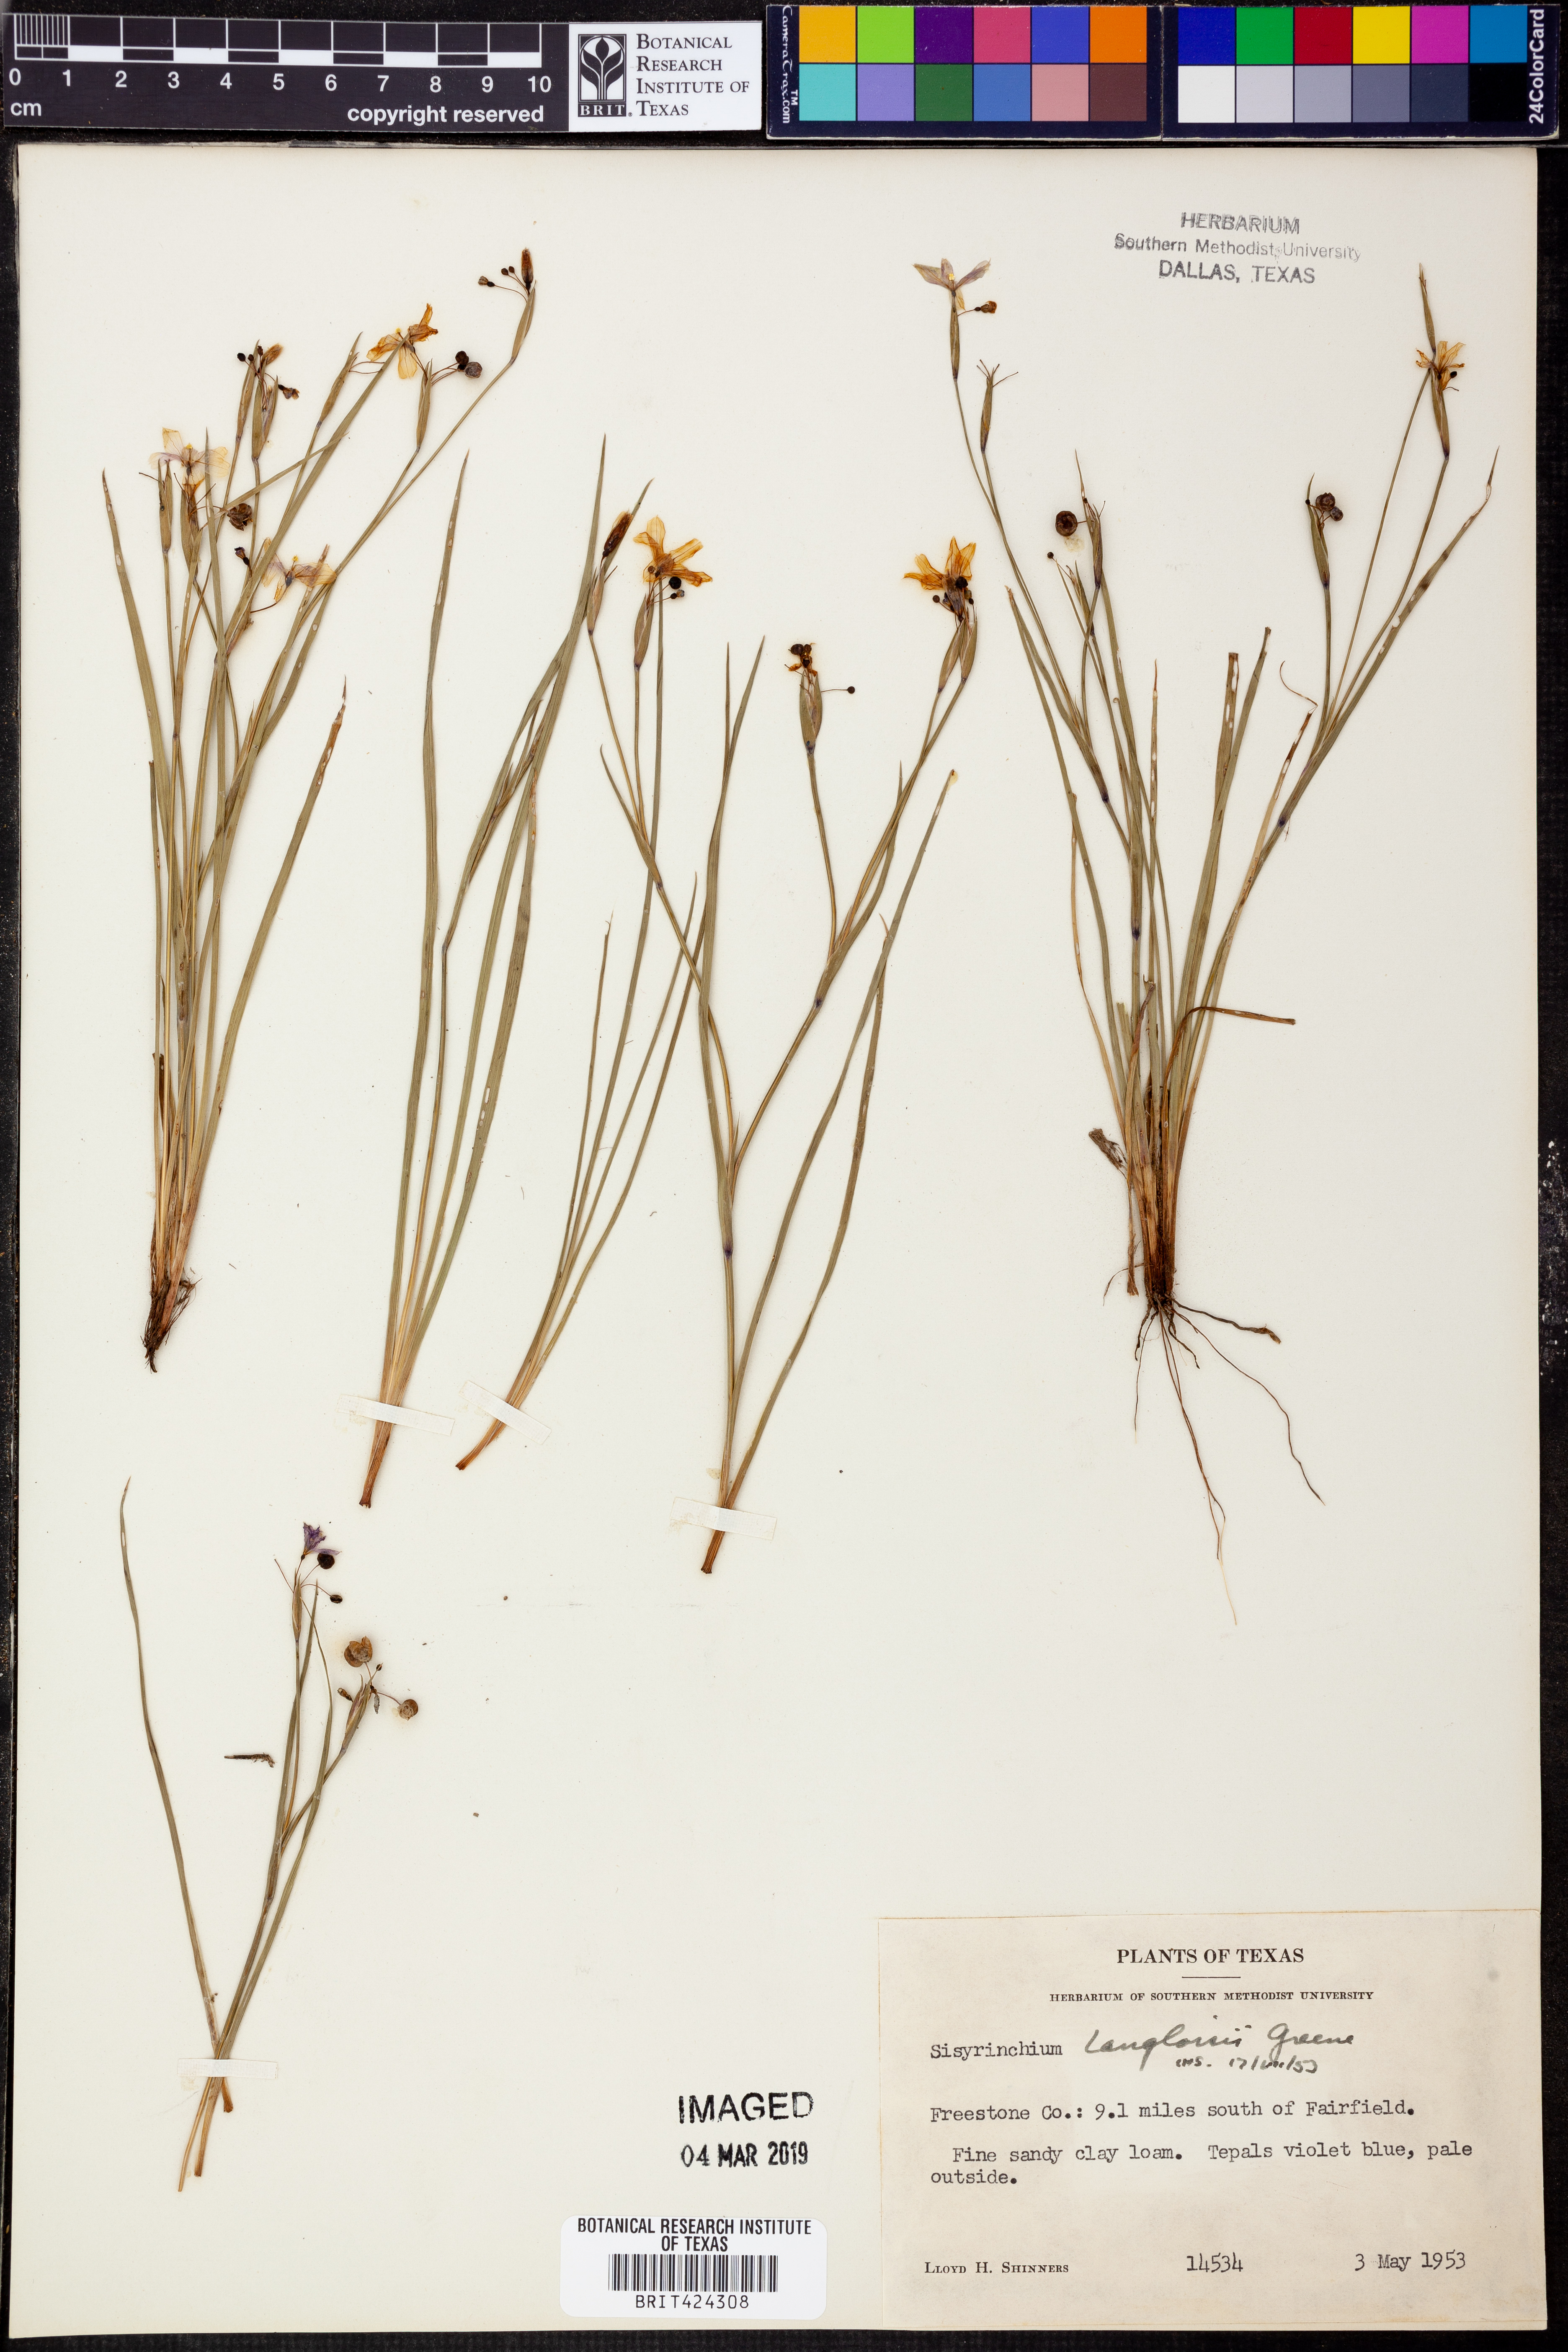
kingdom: Plantae
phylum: Tracheophyta
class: Liliopsida
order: Asparagales
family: Iridaceae
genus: Sisyrinchium
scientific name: Sisyrinchium langloisii
